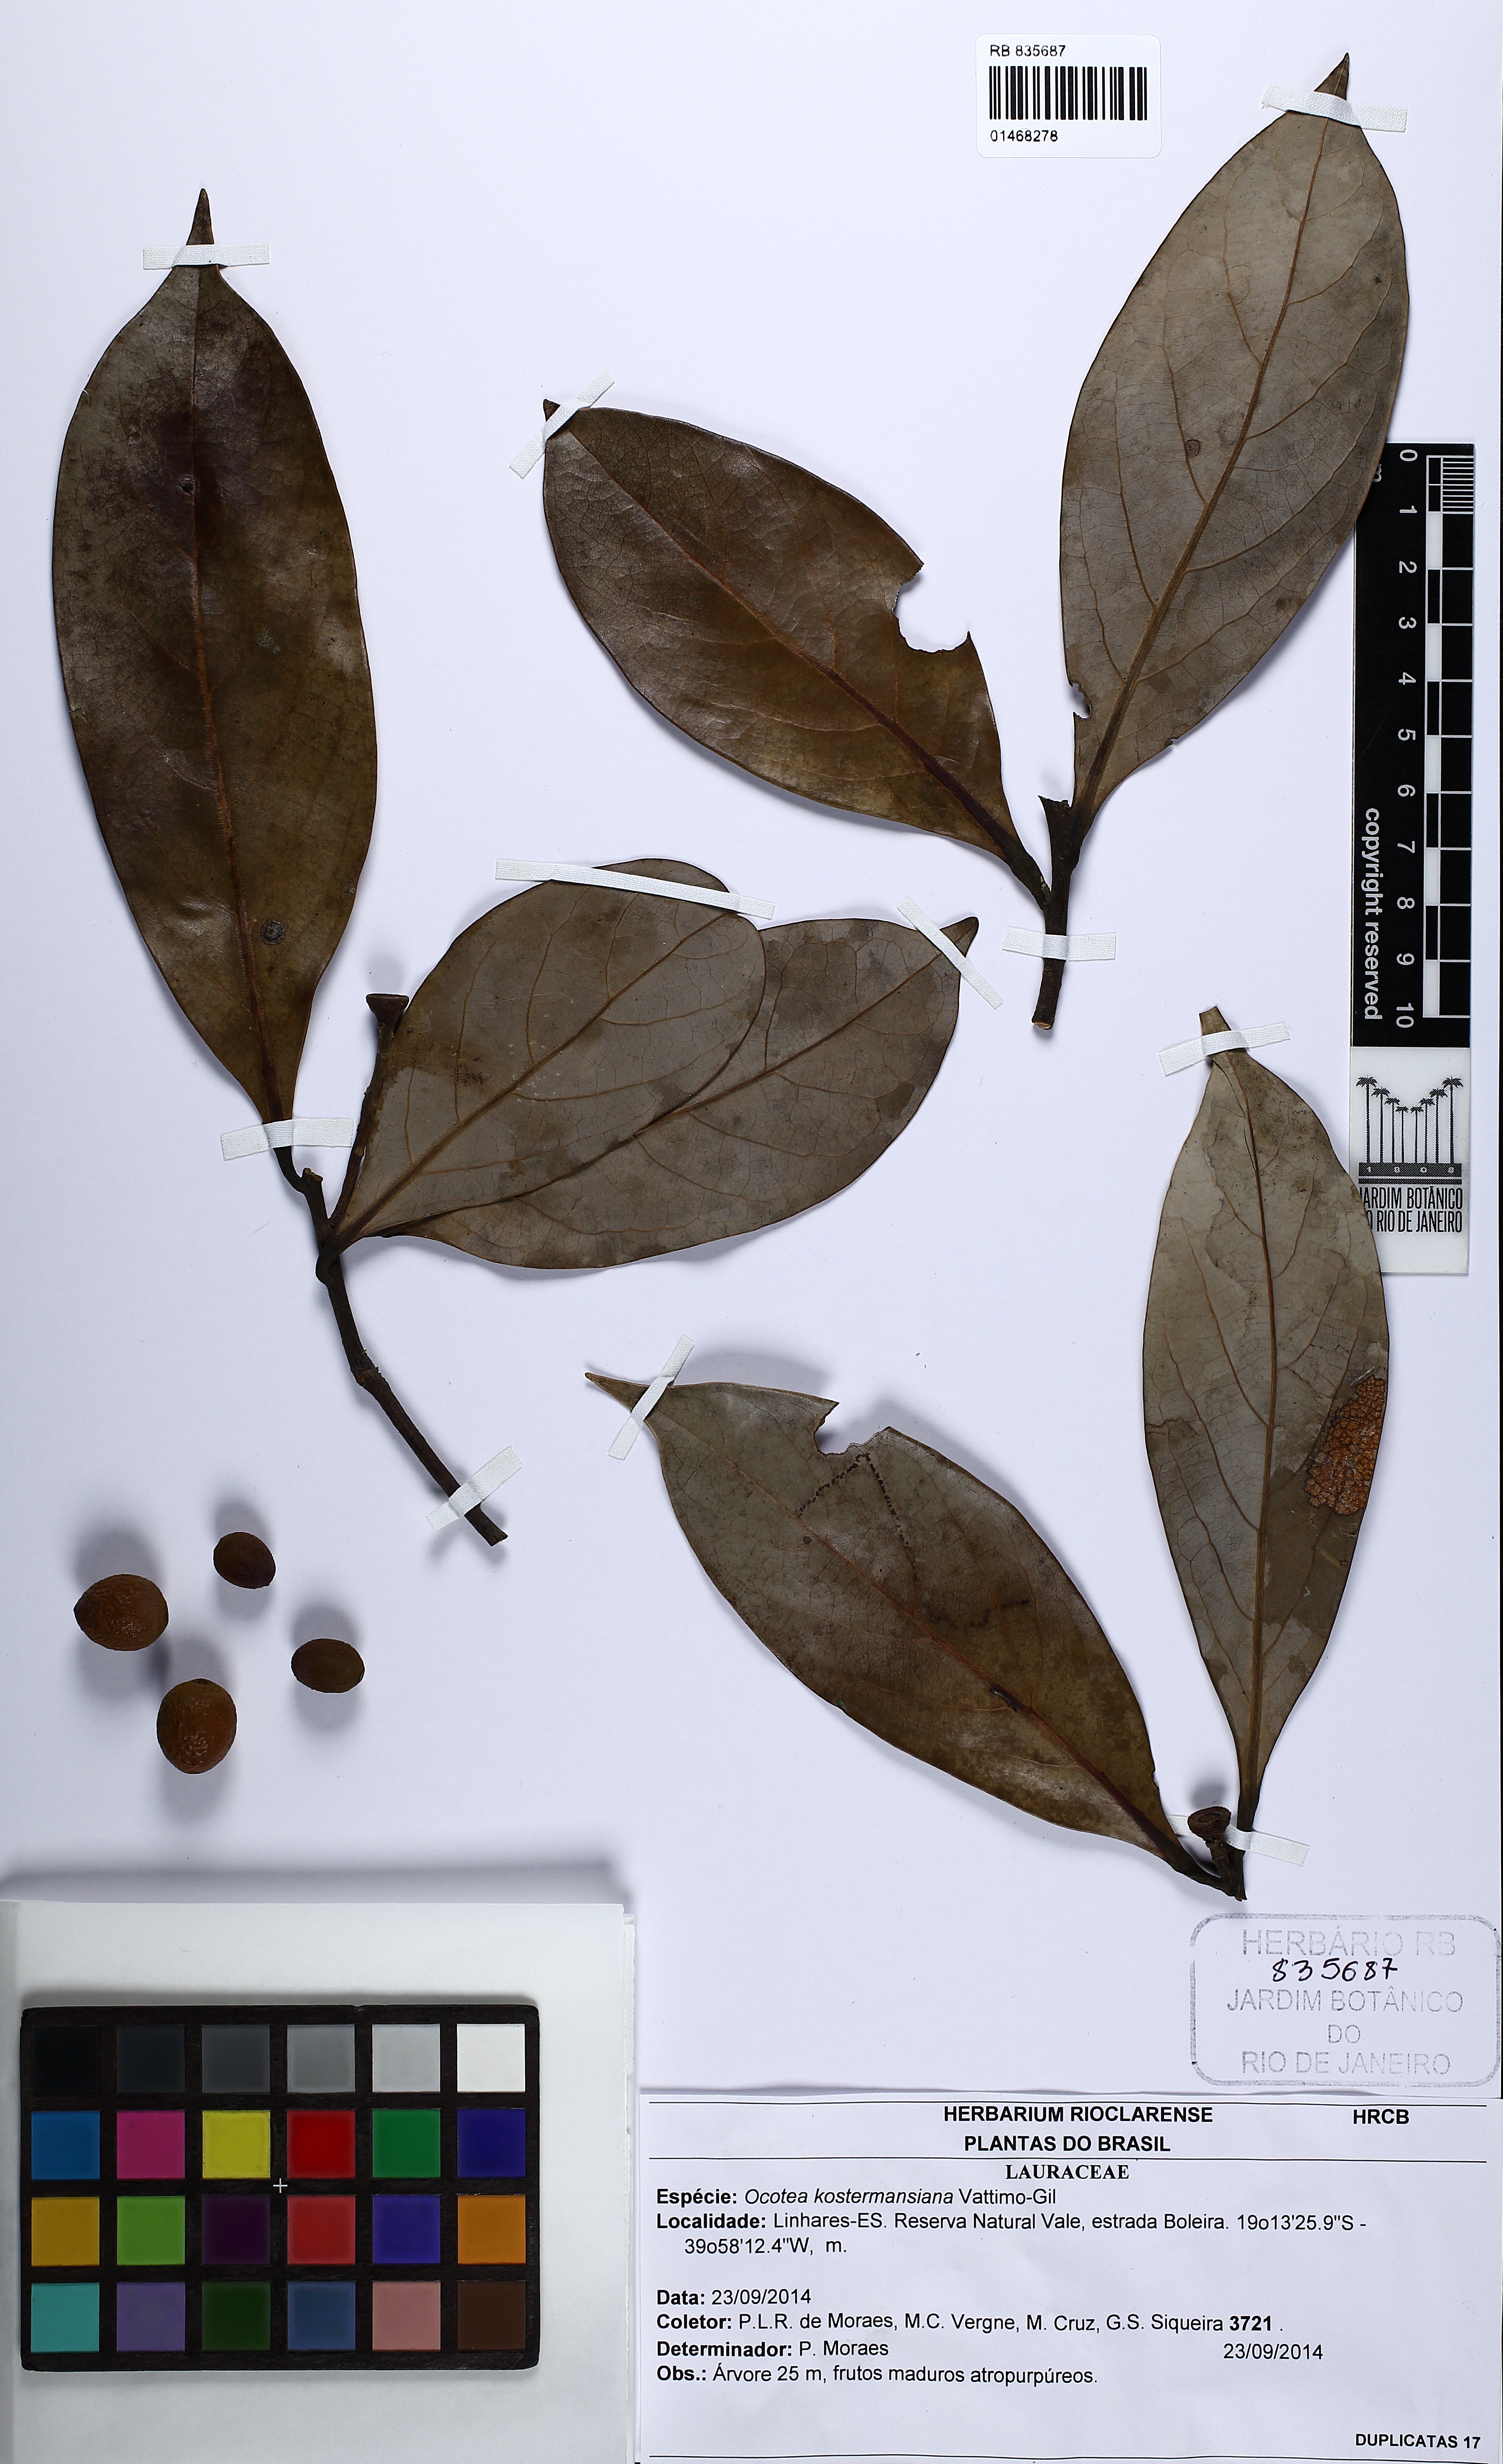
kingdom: Plantae
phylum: Tracheophyta
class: Magnoliopsida
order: Laurales
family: Lauraceae
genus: Ocotea
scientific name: Ocotea kostermanniana
